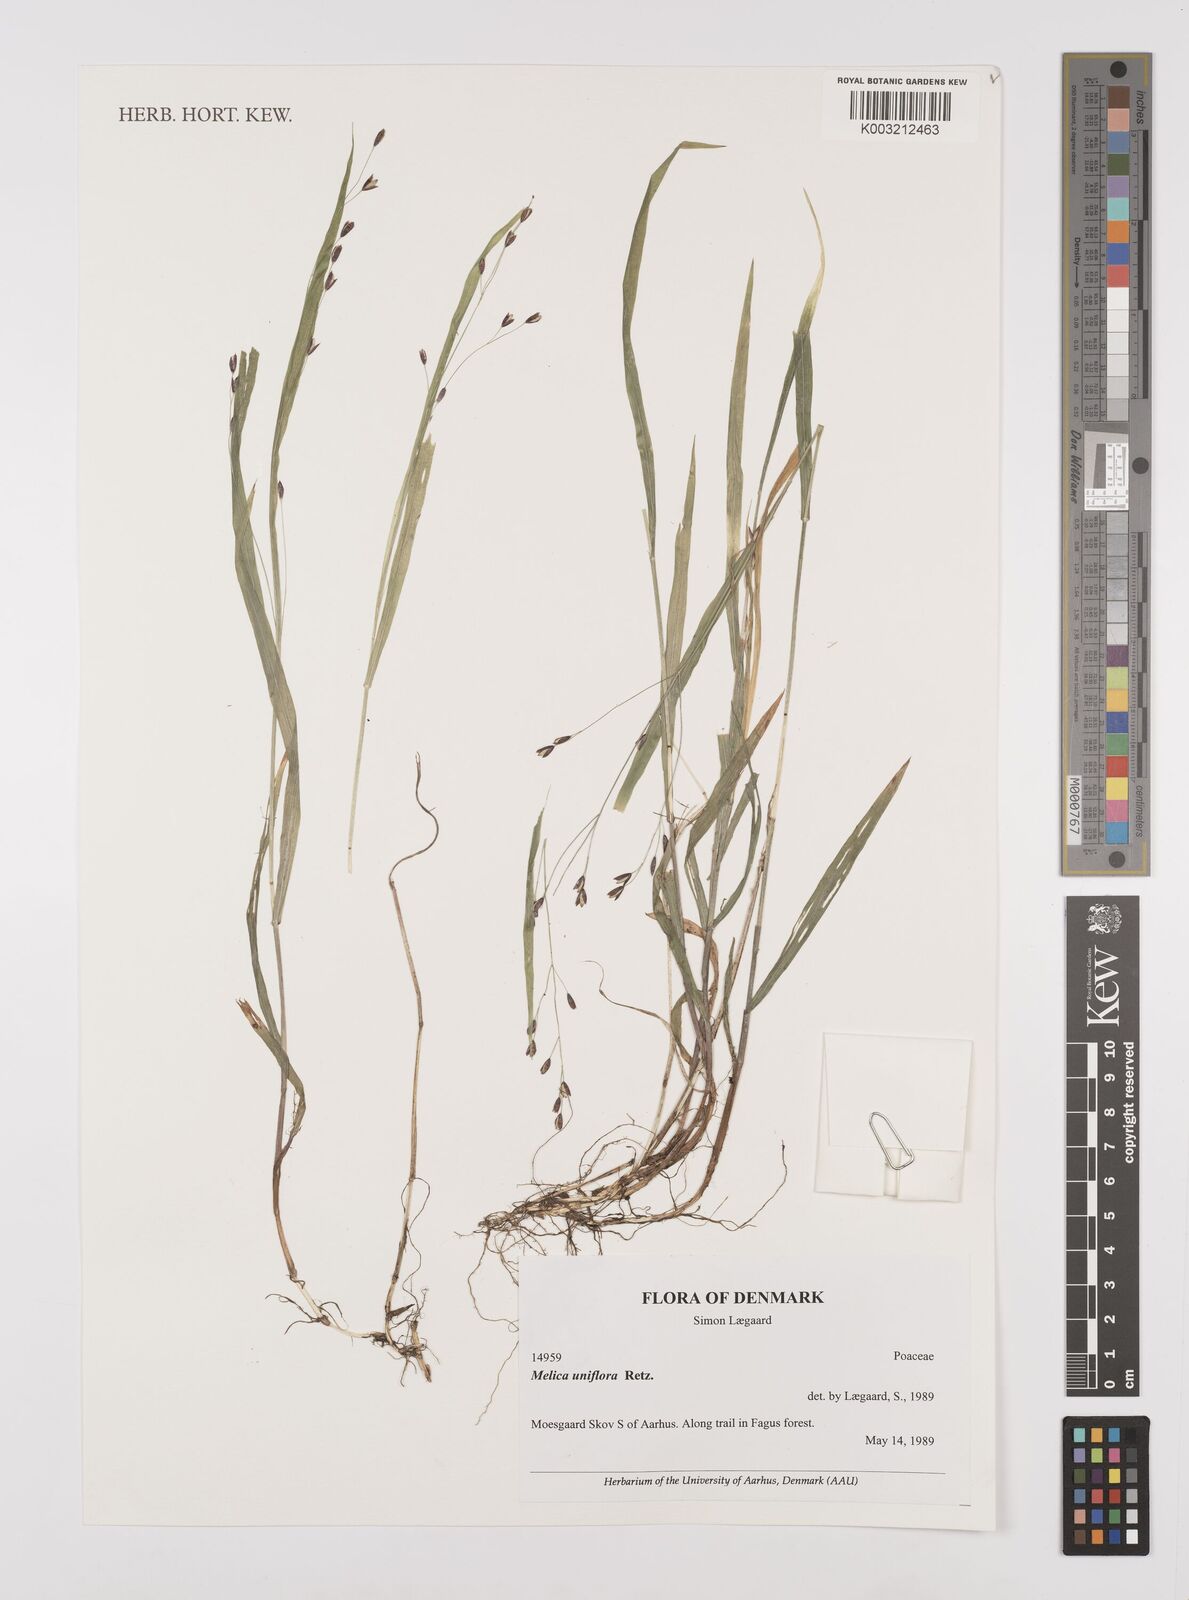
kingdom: Plantae
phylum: Tracheophyta
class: Liliopsida
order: Poales
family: Poaceae
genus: Melica
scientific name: Melica uniflora
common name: Wood melick
